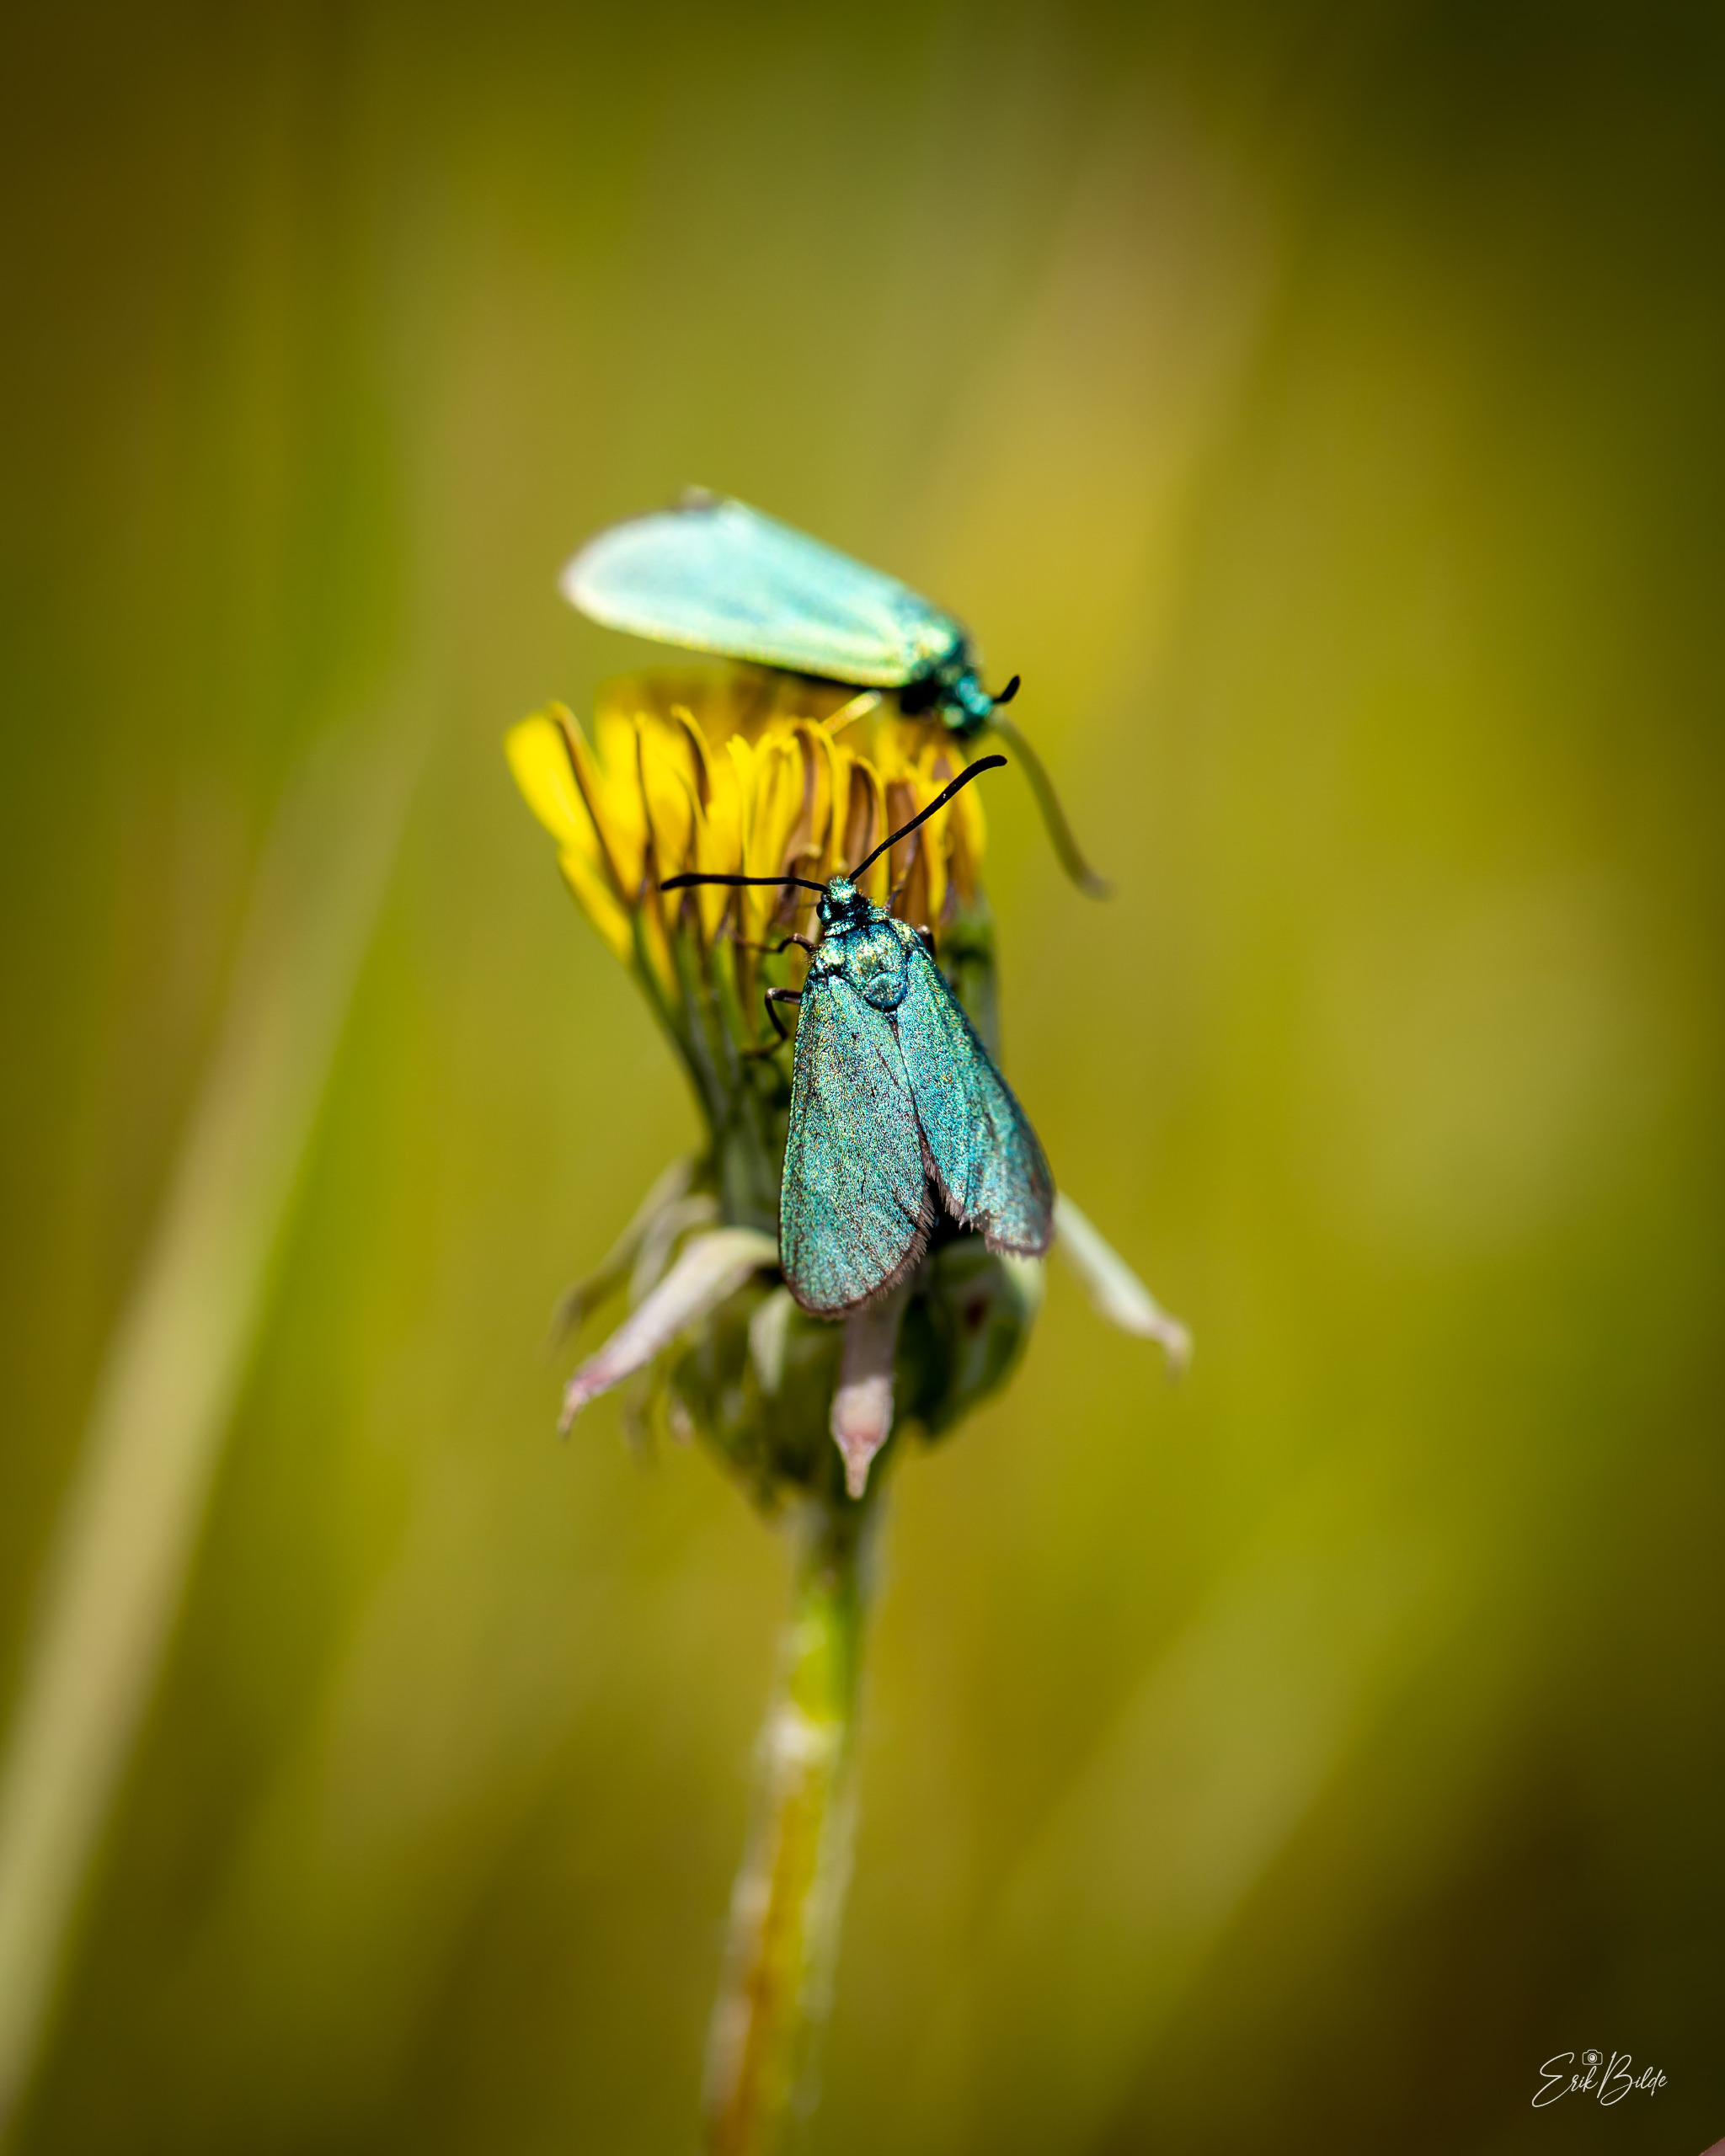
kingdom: Animalia
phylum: Arthropoda
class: Insecta
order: Lepidoptera
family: Zygaenidae
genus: Adscita
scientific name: Adscita statices
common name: Metalvinge
